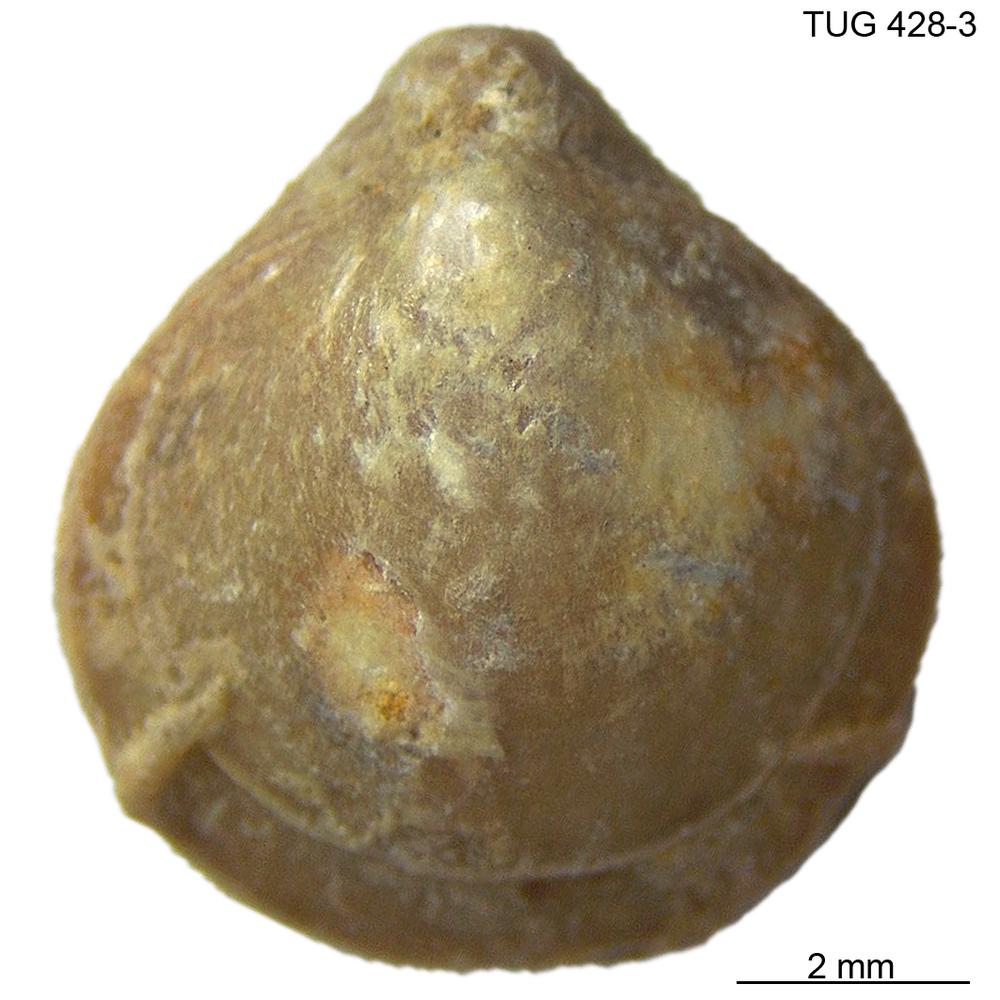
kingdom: Animalia
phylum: Brachiopoda
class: Rhynchonellata
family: Carinatinidae
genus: Spirigerina
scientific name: Spirigerina
